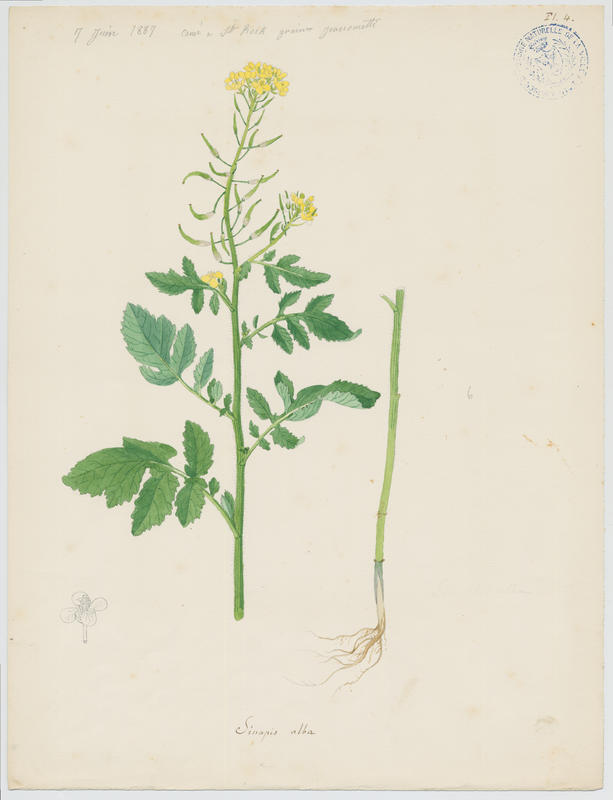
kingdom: Plantae
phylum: Tracheophyta
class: Magnoliopsida
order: Brassicales
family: Brassicaceae
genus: Sinapis
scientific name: Sinapis alba
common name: White mustard
